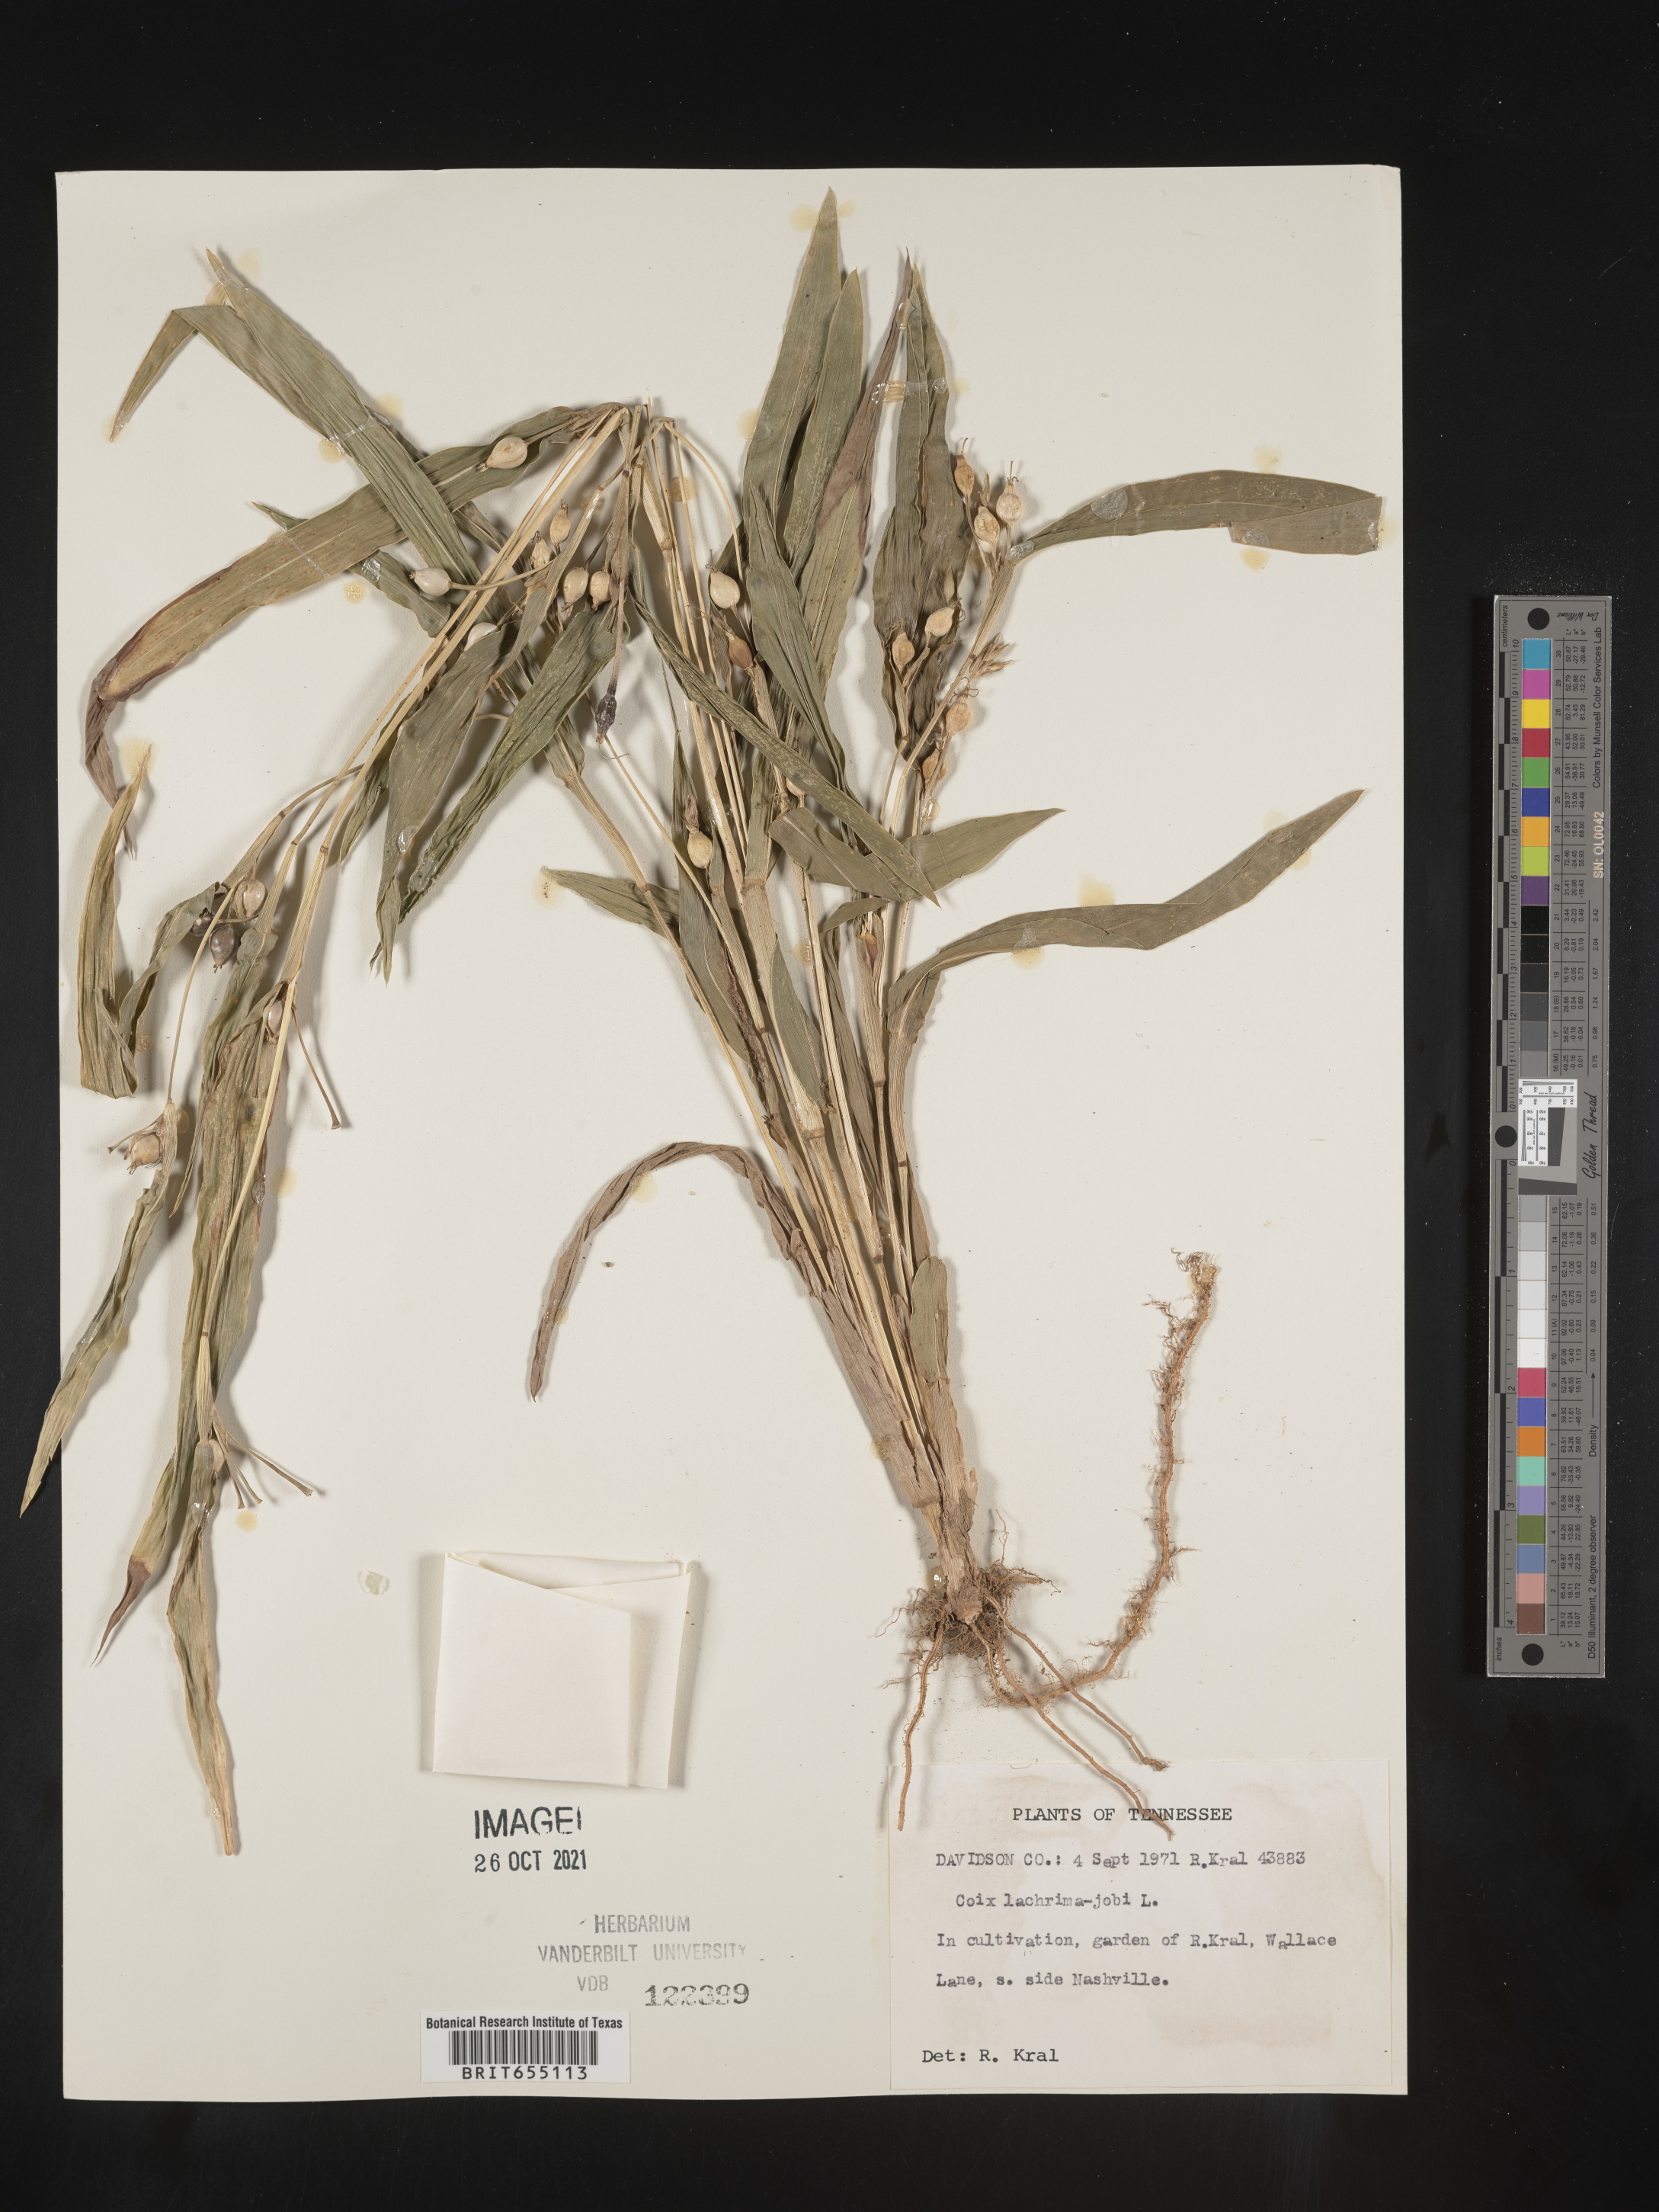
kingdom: Plantae
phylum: Tracheophyta
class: Liliopsida
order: Poales
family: Poaceae
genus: Coix
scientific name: Coix
